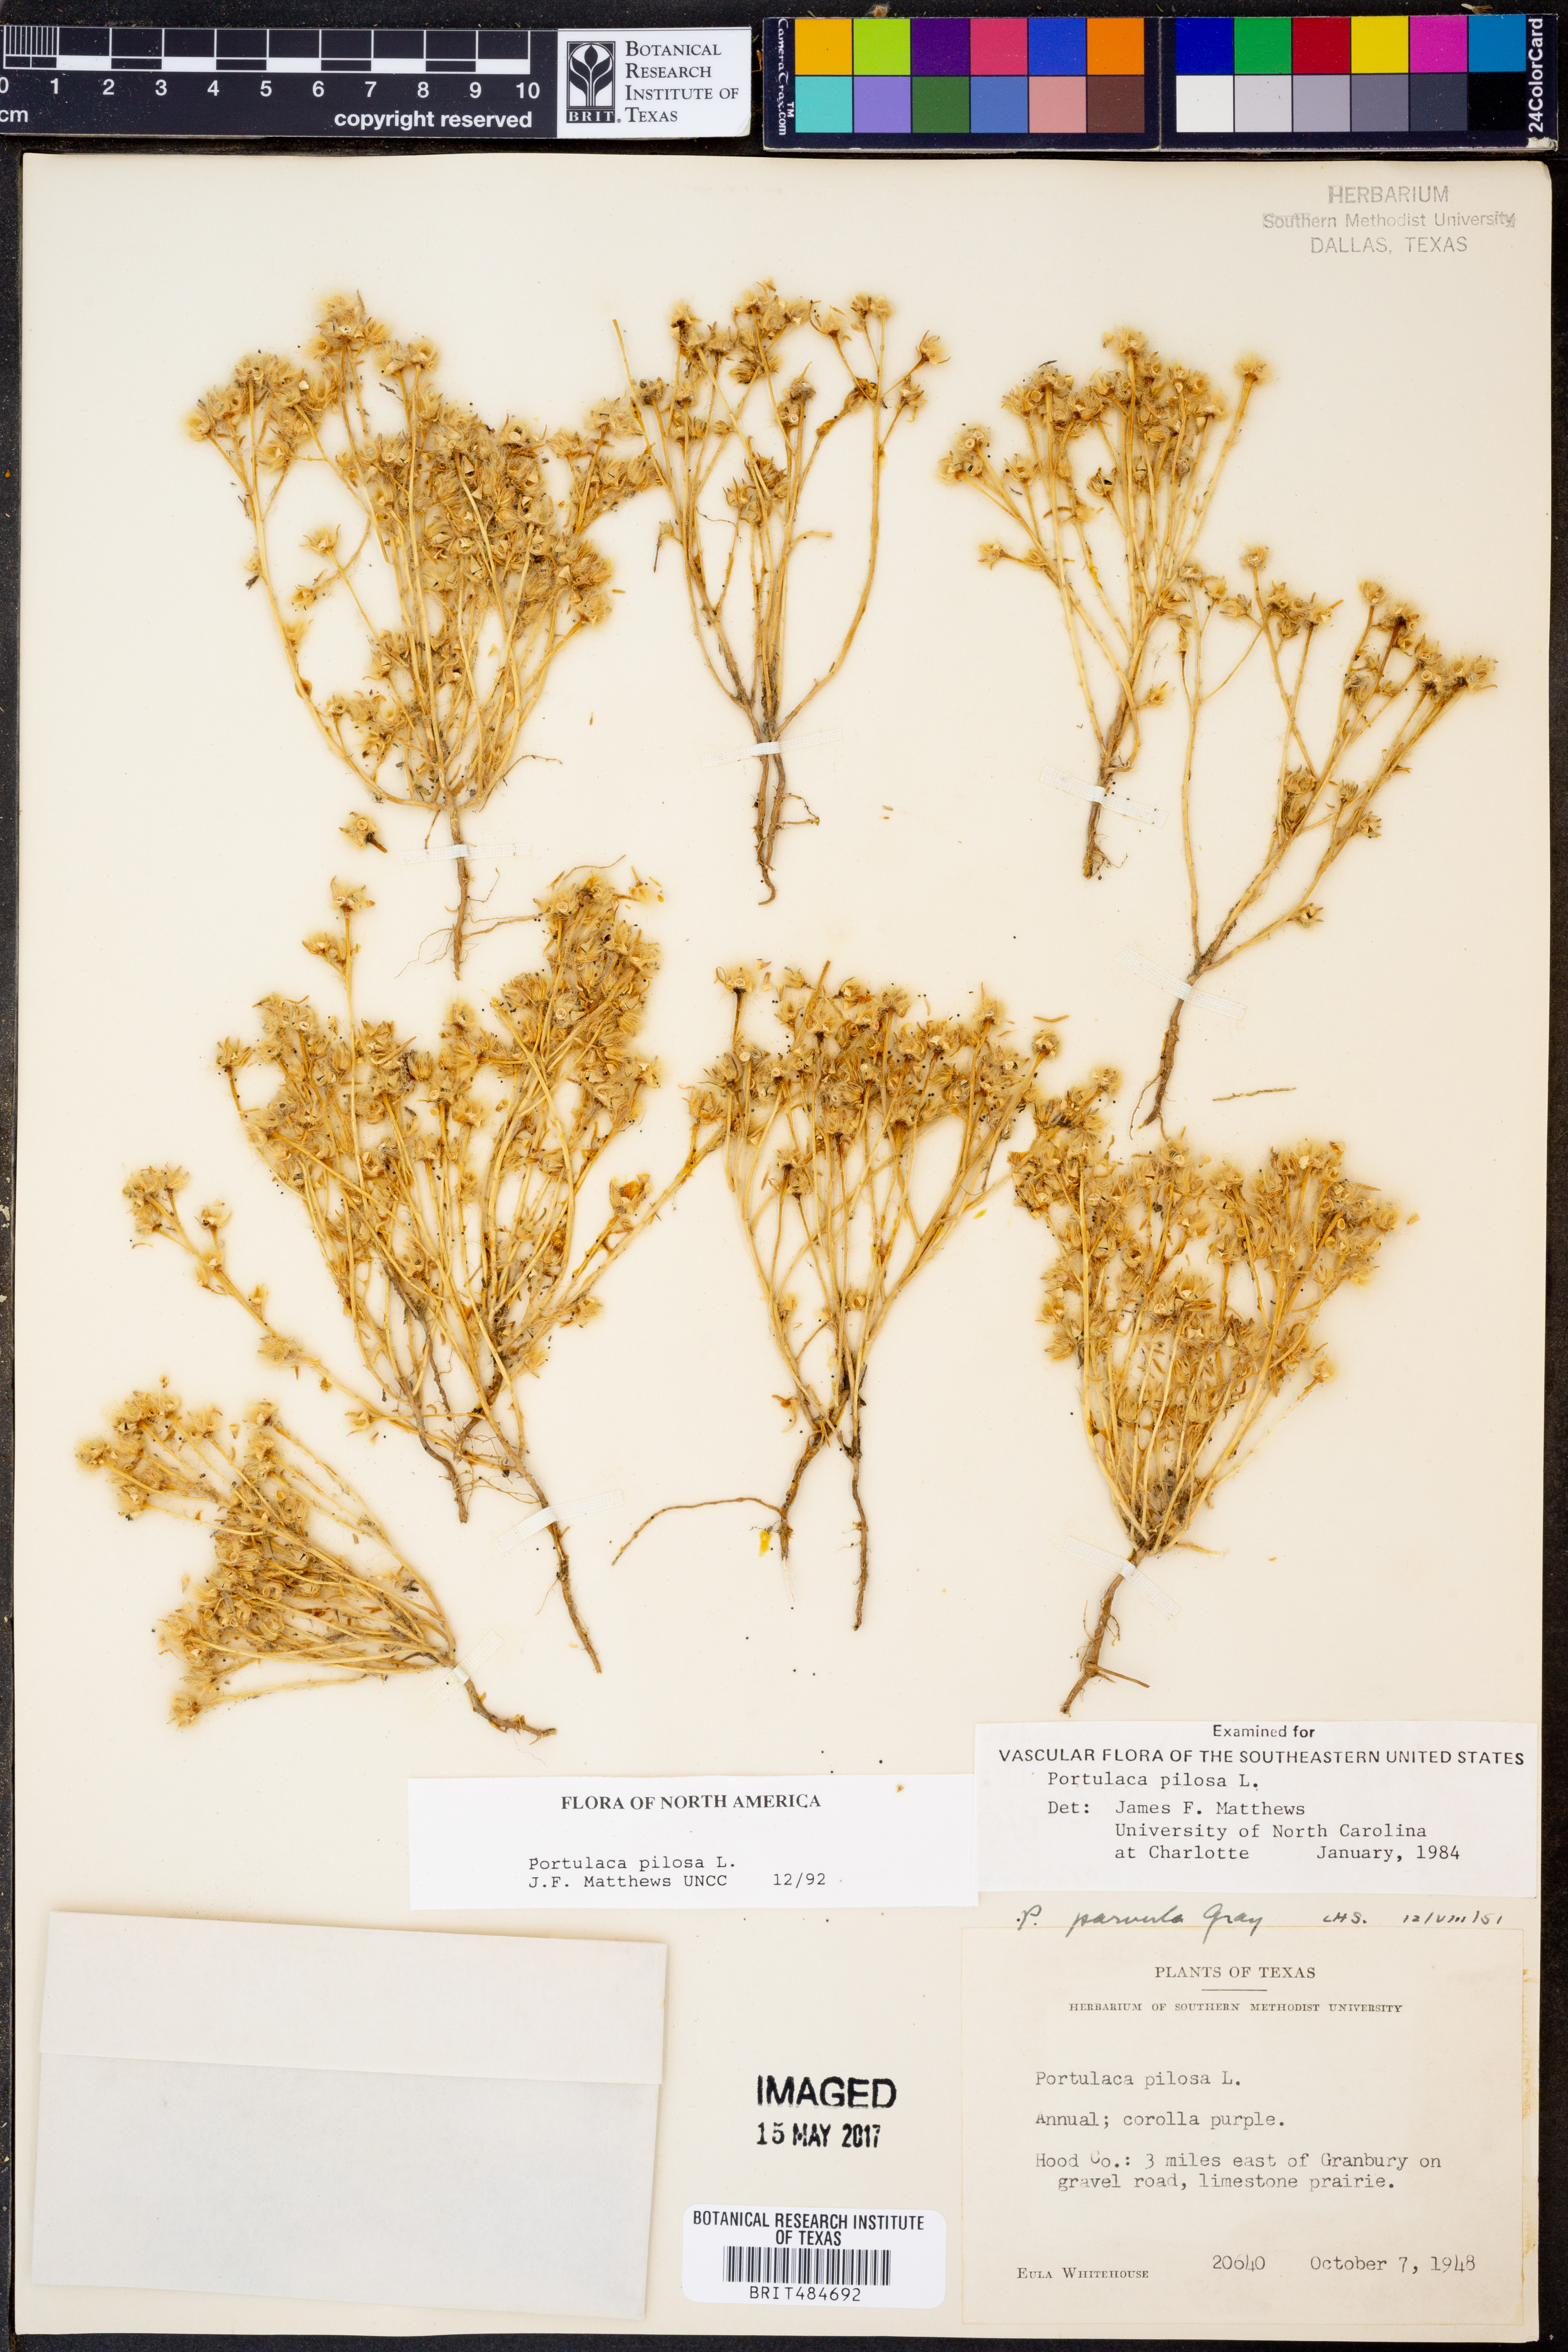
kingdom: Plantae
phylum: Tracheophyta
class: Magnoliopsida
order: Caryophyllales
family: Portulacaceae
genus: Portulaca
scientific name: Portulaca pilosa
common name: Kiss me quick
